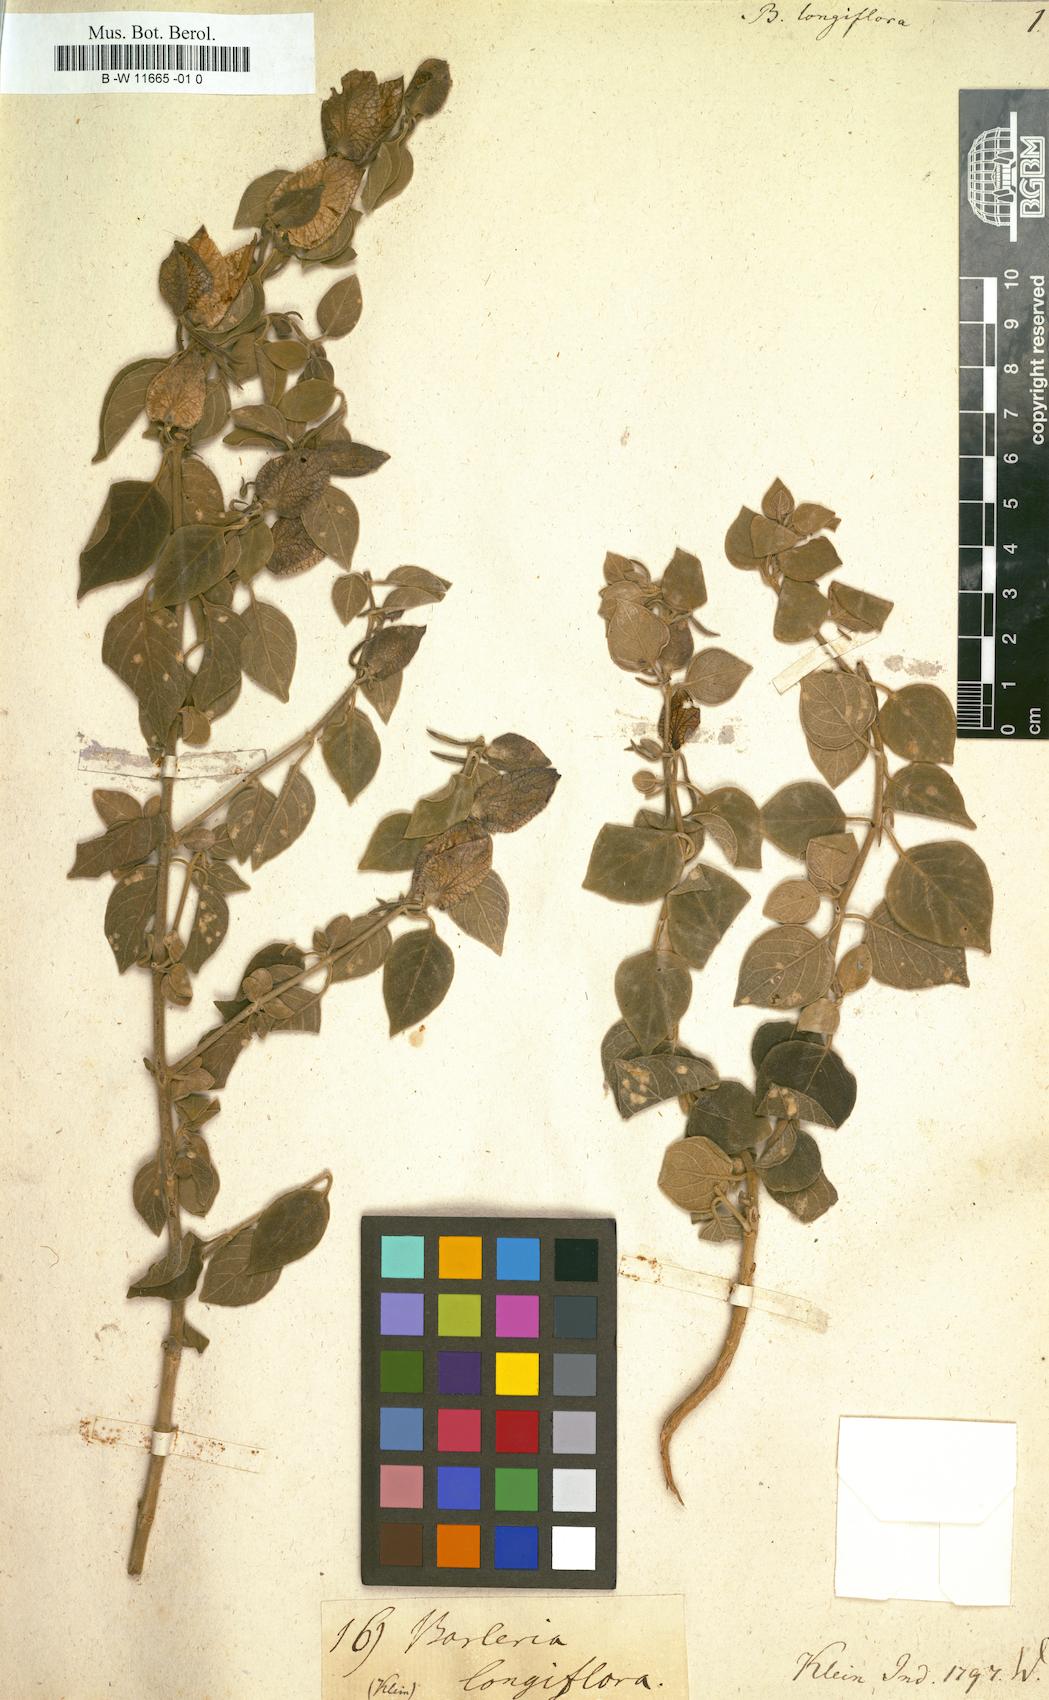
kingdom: Plantae
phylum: Tracheophyta
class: Magnoliopsida
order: Lamiales
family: Acanthaceae
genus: Barleria
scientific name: Barleria longiflora
